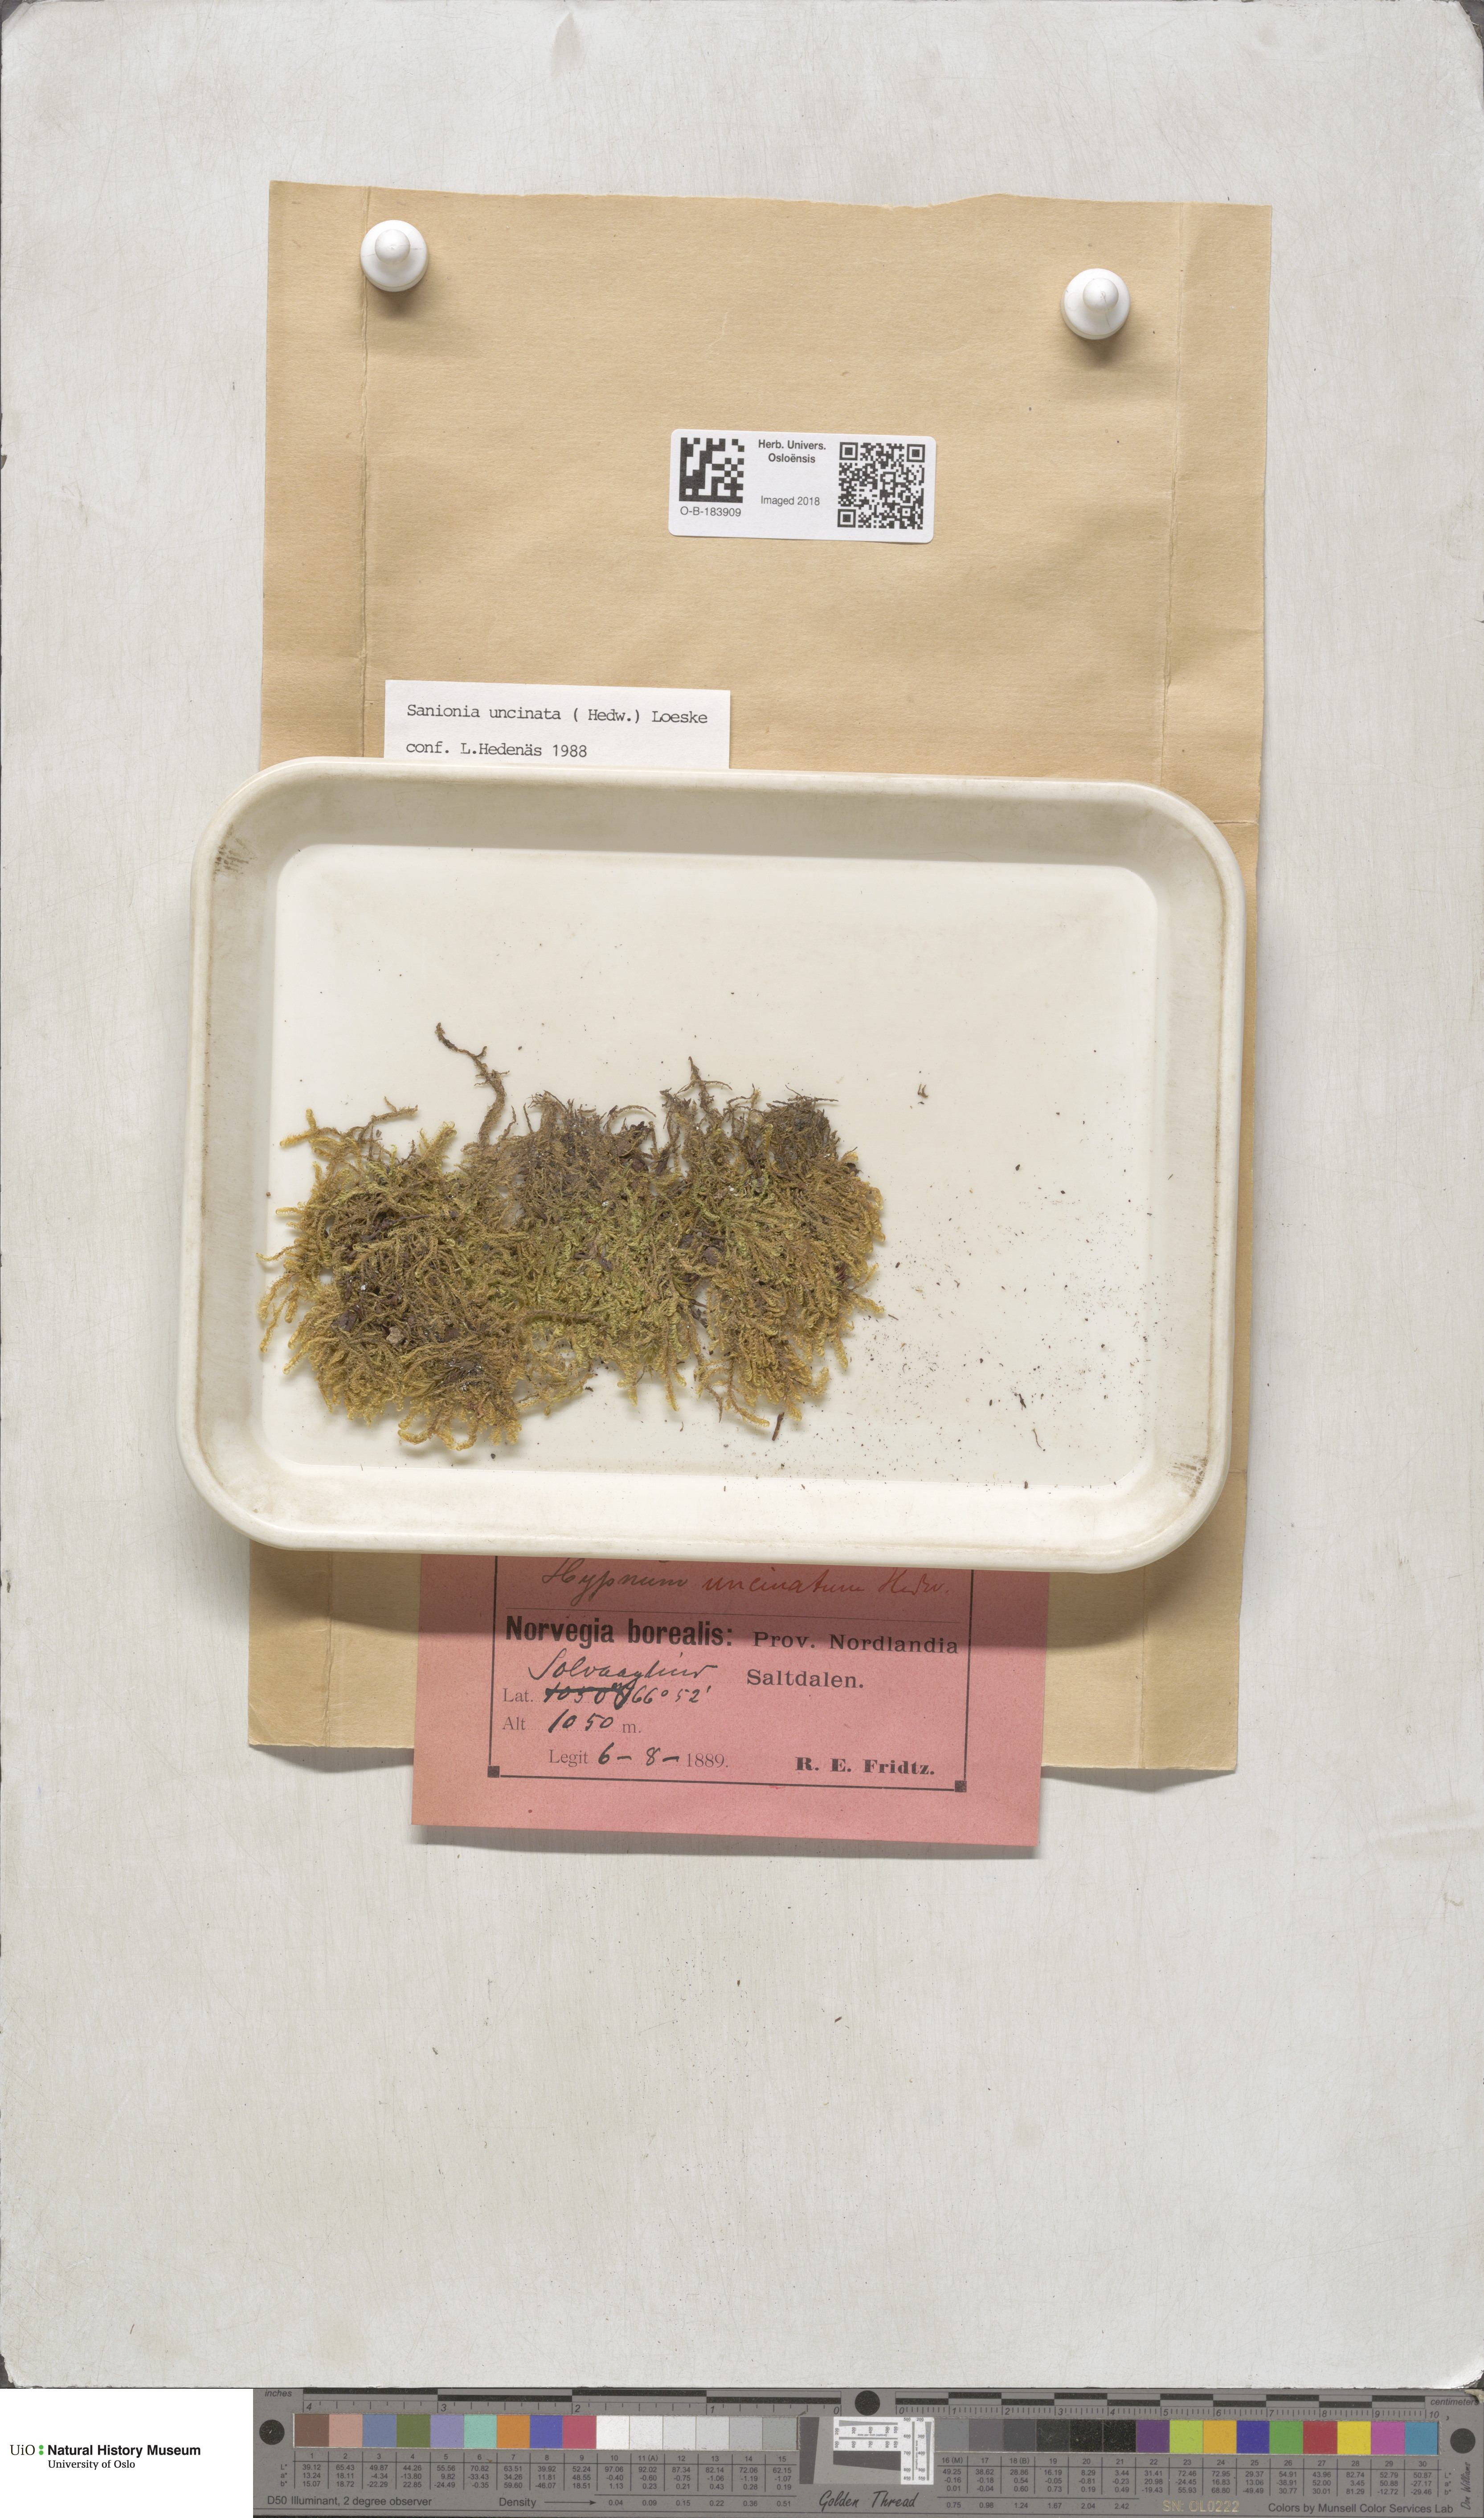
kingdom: Plantae
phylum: Bryophyta
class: Bryopsida
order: Hypnales
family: Scorpidiaceae
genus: Sanionia
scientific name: Sanionia uncinata
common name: Sickle moss
